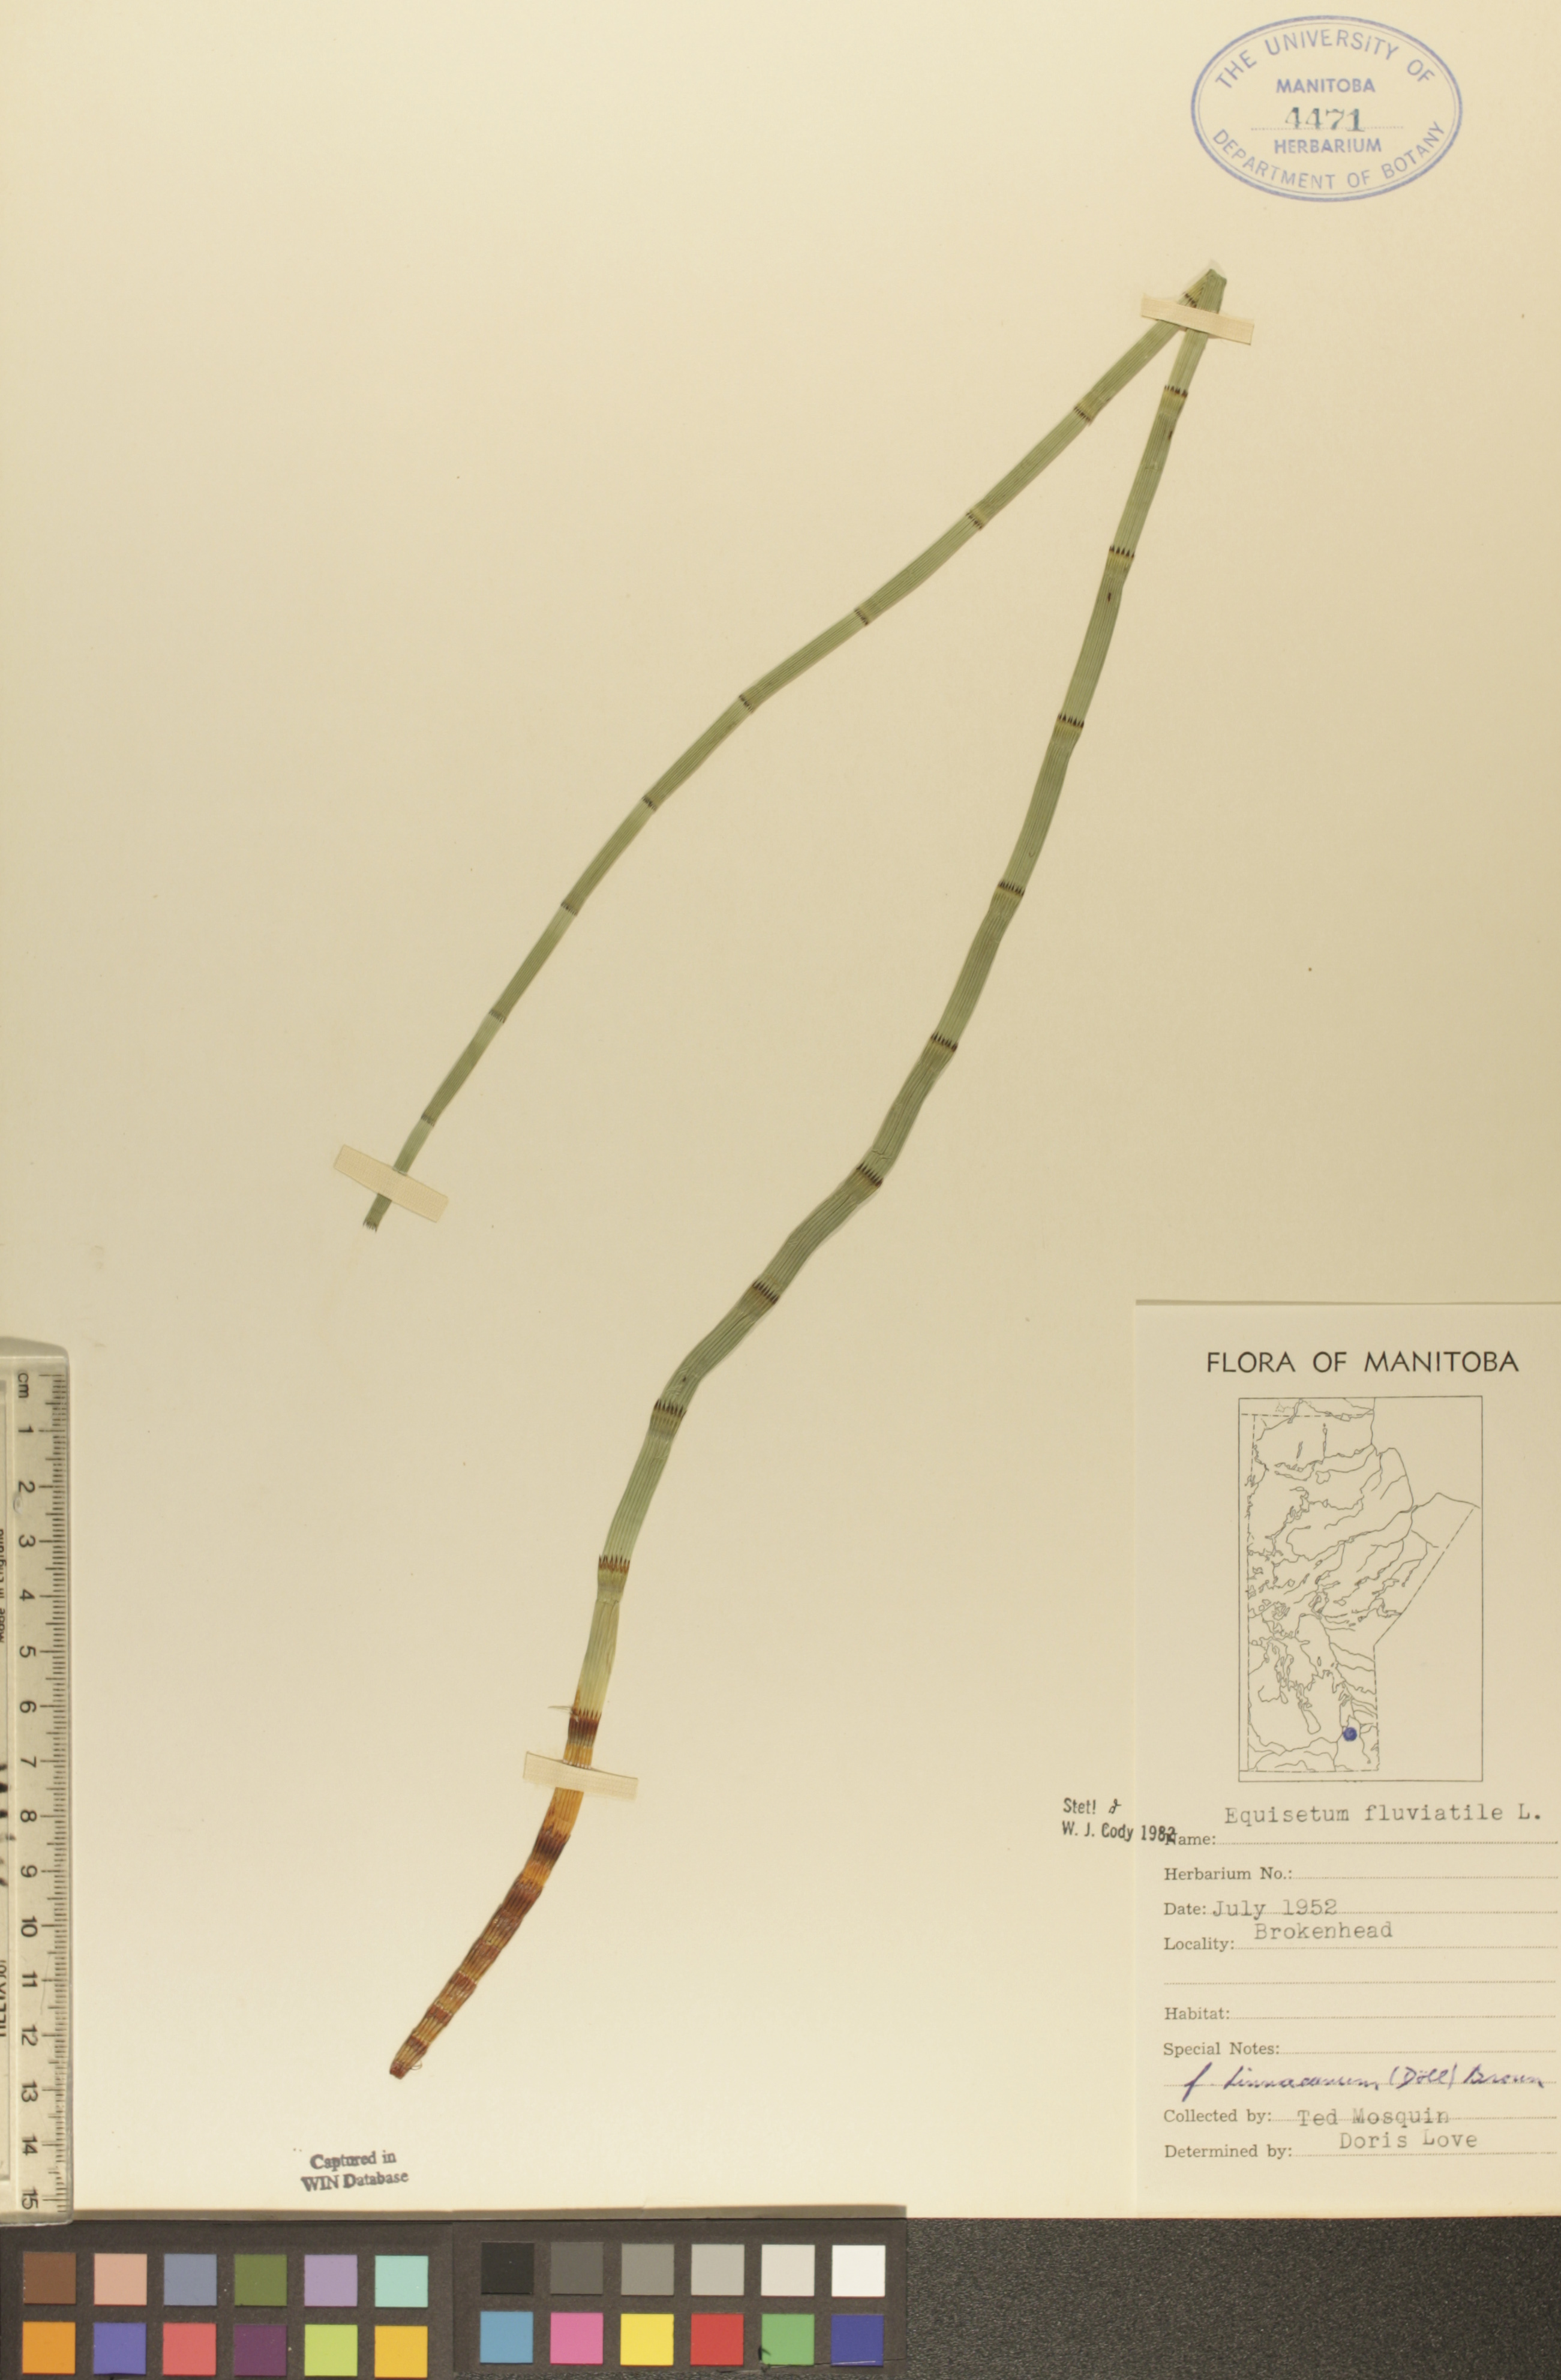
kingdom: Plantae
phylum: Tracheophyta
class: Polypodiopsida
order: Equisetales
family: Equisetaceae
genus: Equisetum
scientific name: Equisetum fluviatile
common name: Water horsetail
